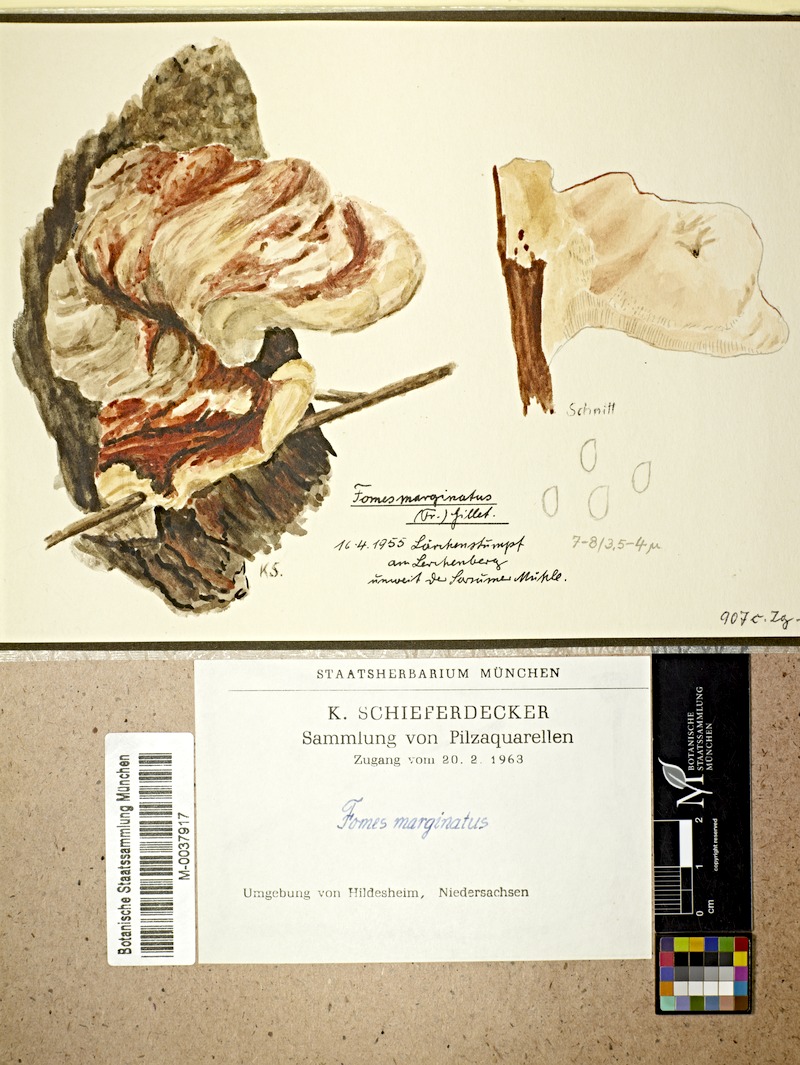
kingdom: Fungi
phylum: Basidiomycota
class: Agaricomycetes
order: Polyporales
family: Fomitopsidaceae
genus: Fomitopsis
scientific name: Fomitopsis pinicola
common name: Red-belted bracket
